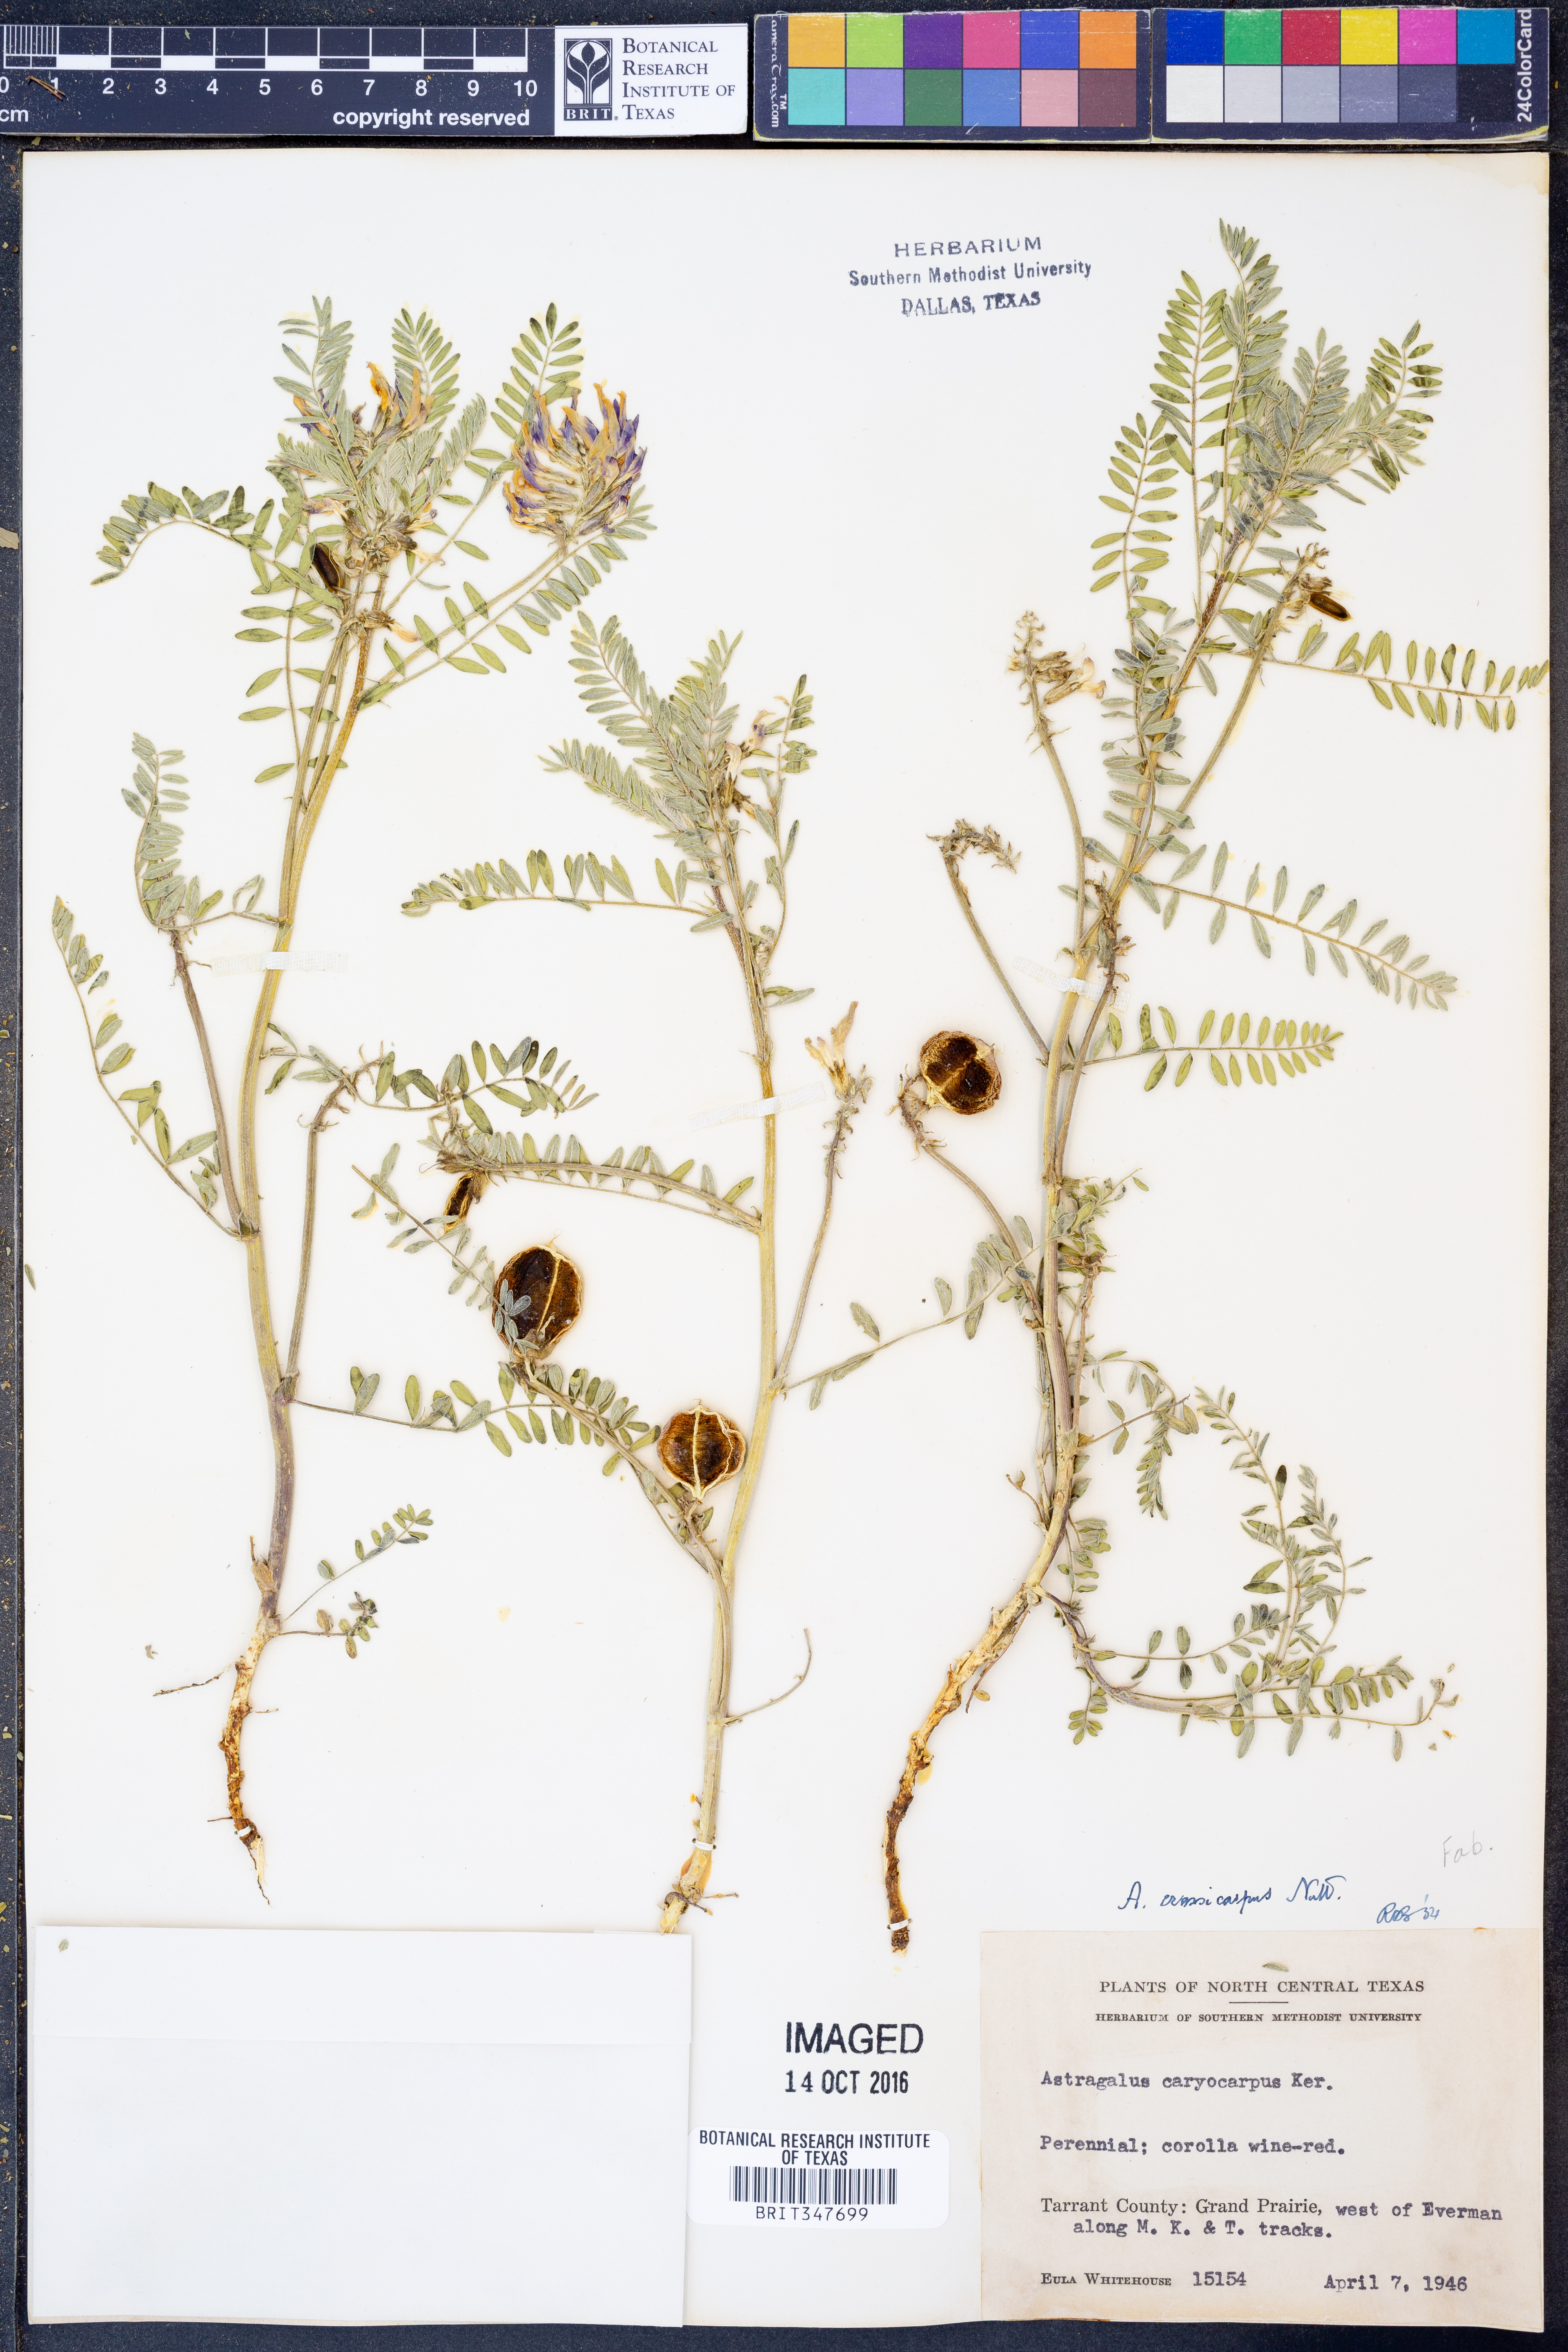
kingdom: Plantae
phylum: Tracheophyta
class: Magnoliopsida
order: Fabales
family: Fabaceae
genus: Astragalus
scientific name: Astragalus crassicarpus
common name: Ground-plum milk-vetch
